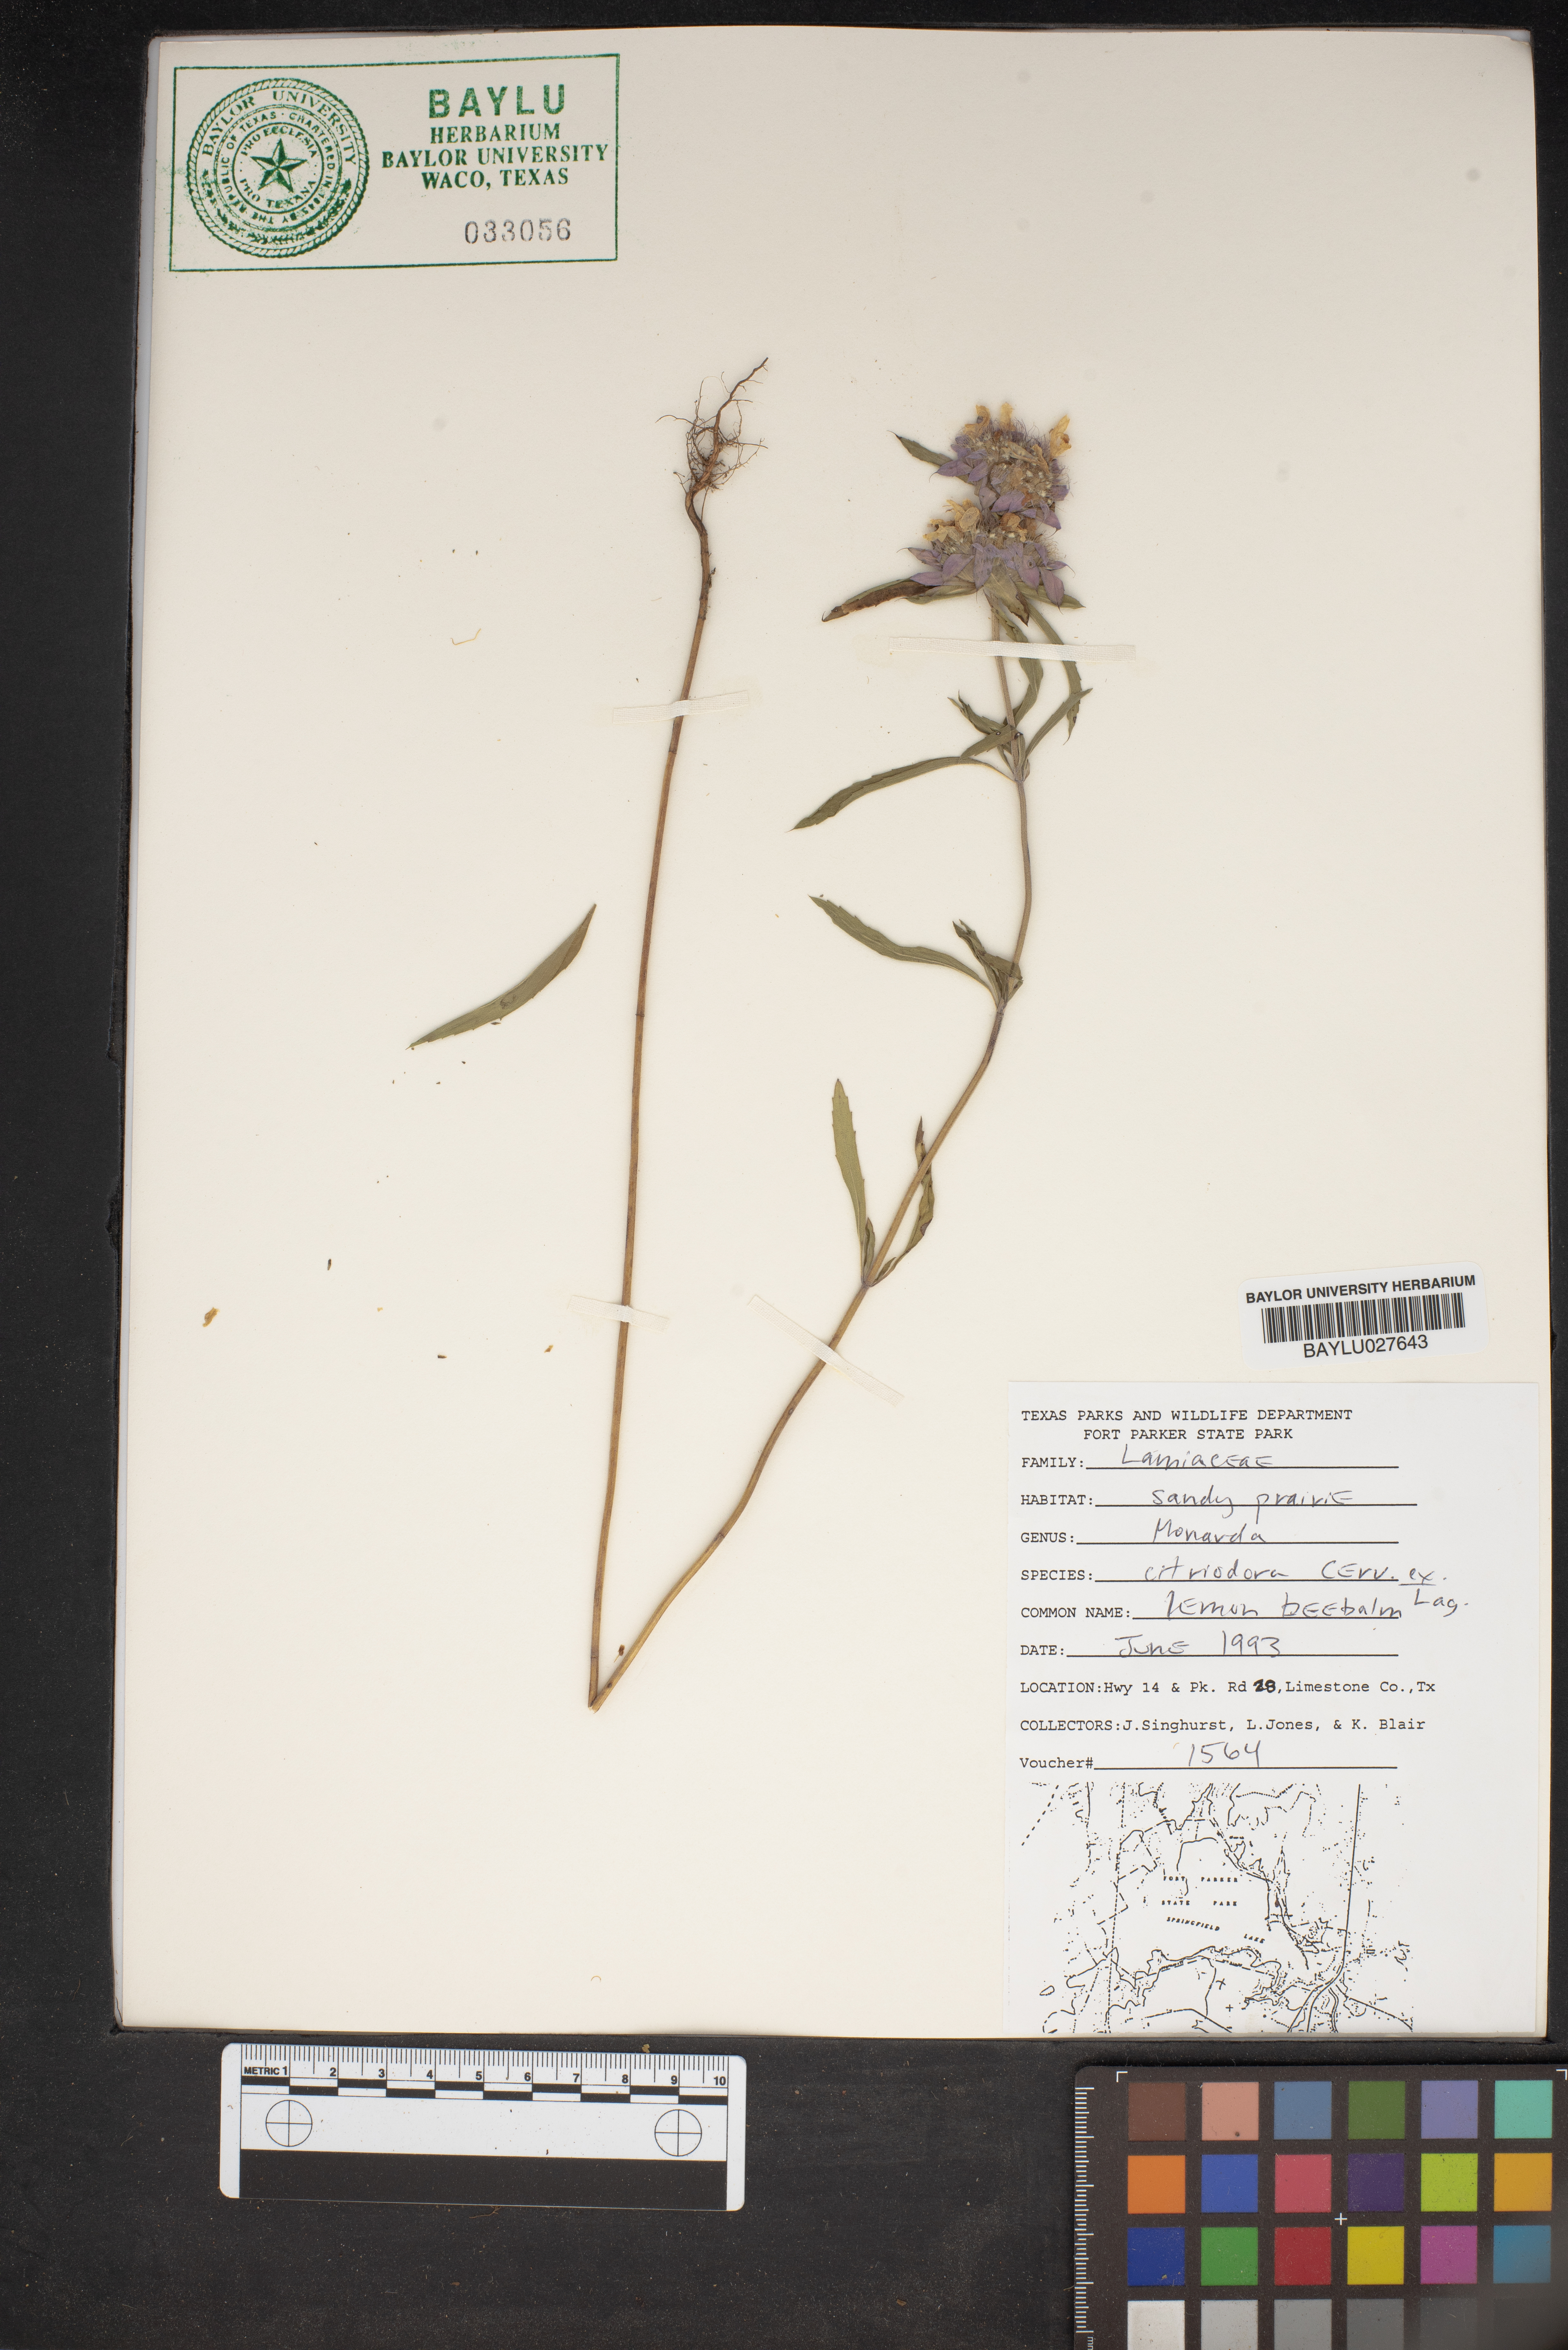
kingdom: Plantae
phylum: Tracheophyta
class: Magnoliopsida
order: Lamiales
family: Lamiaceae
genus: Monarda
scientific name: Monarda citriodora
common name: Lemon beebalm
